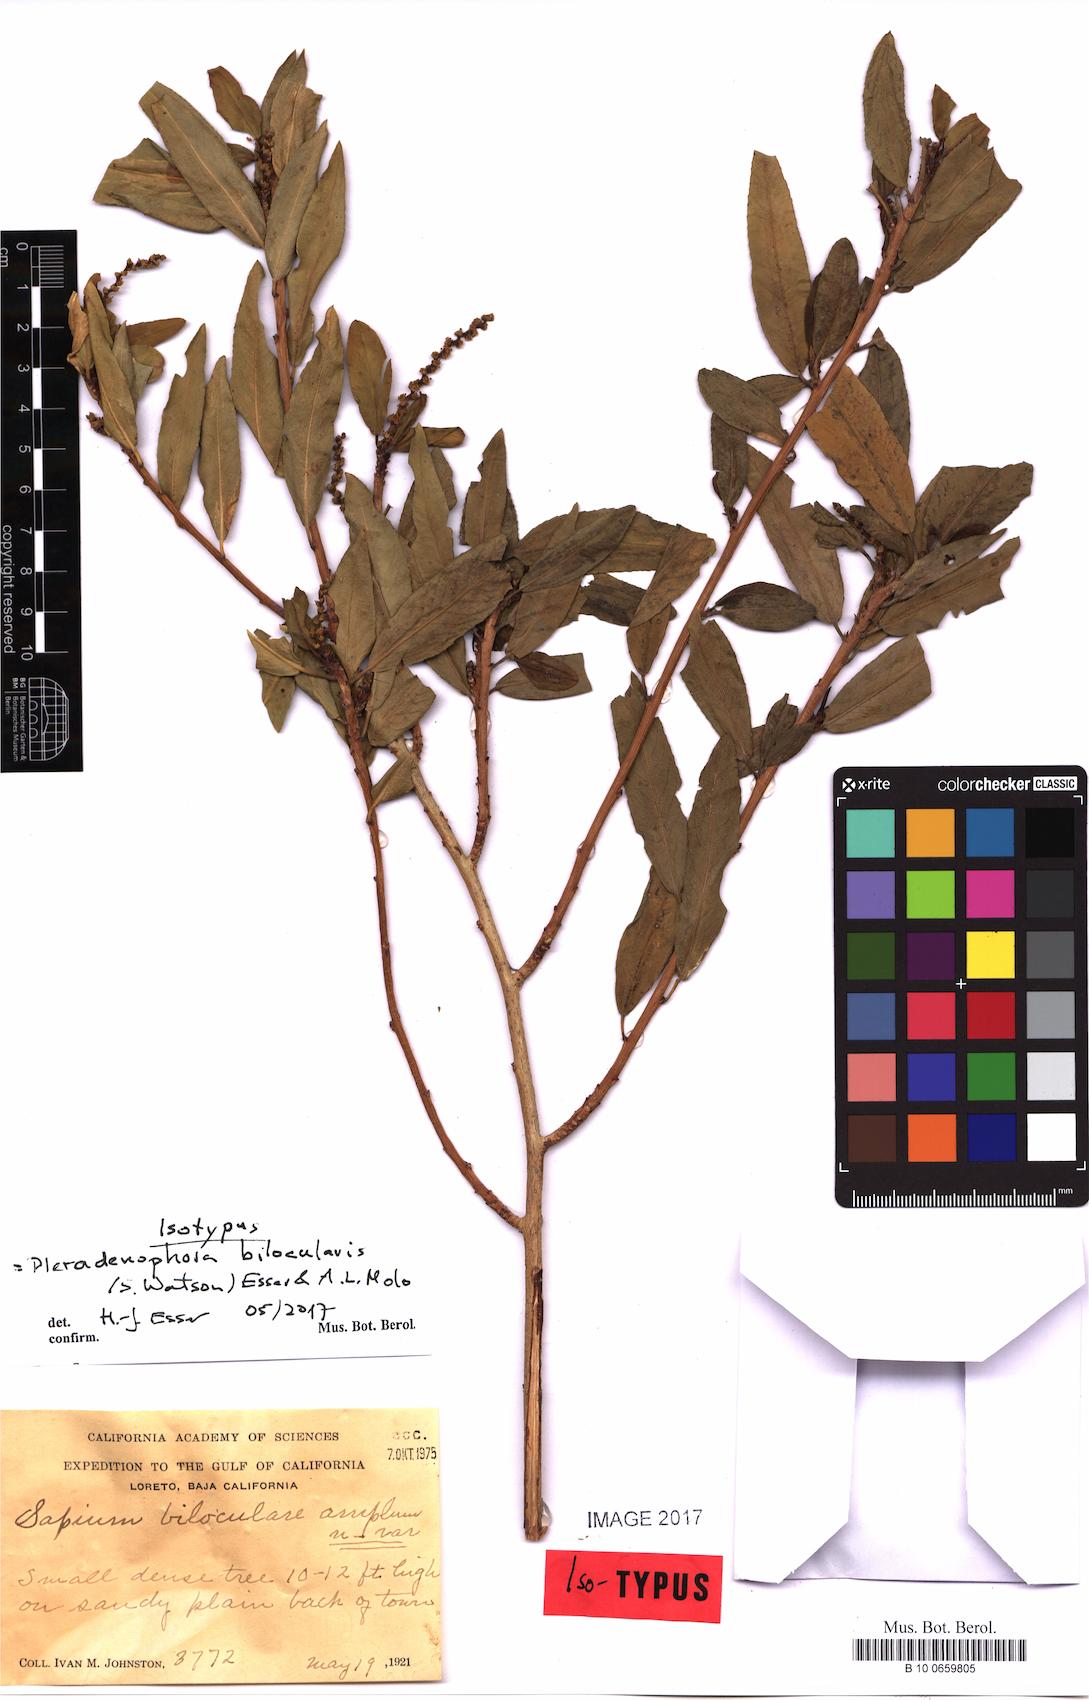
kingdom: Plantae
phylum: Tracheophyta
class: Magnoliopsida
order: Malpighiales
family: Euphorbiaceae
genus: Pleradenophora
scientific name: Pleradenophora bilocularis
